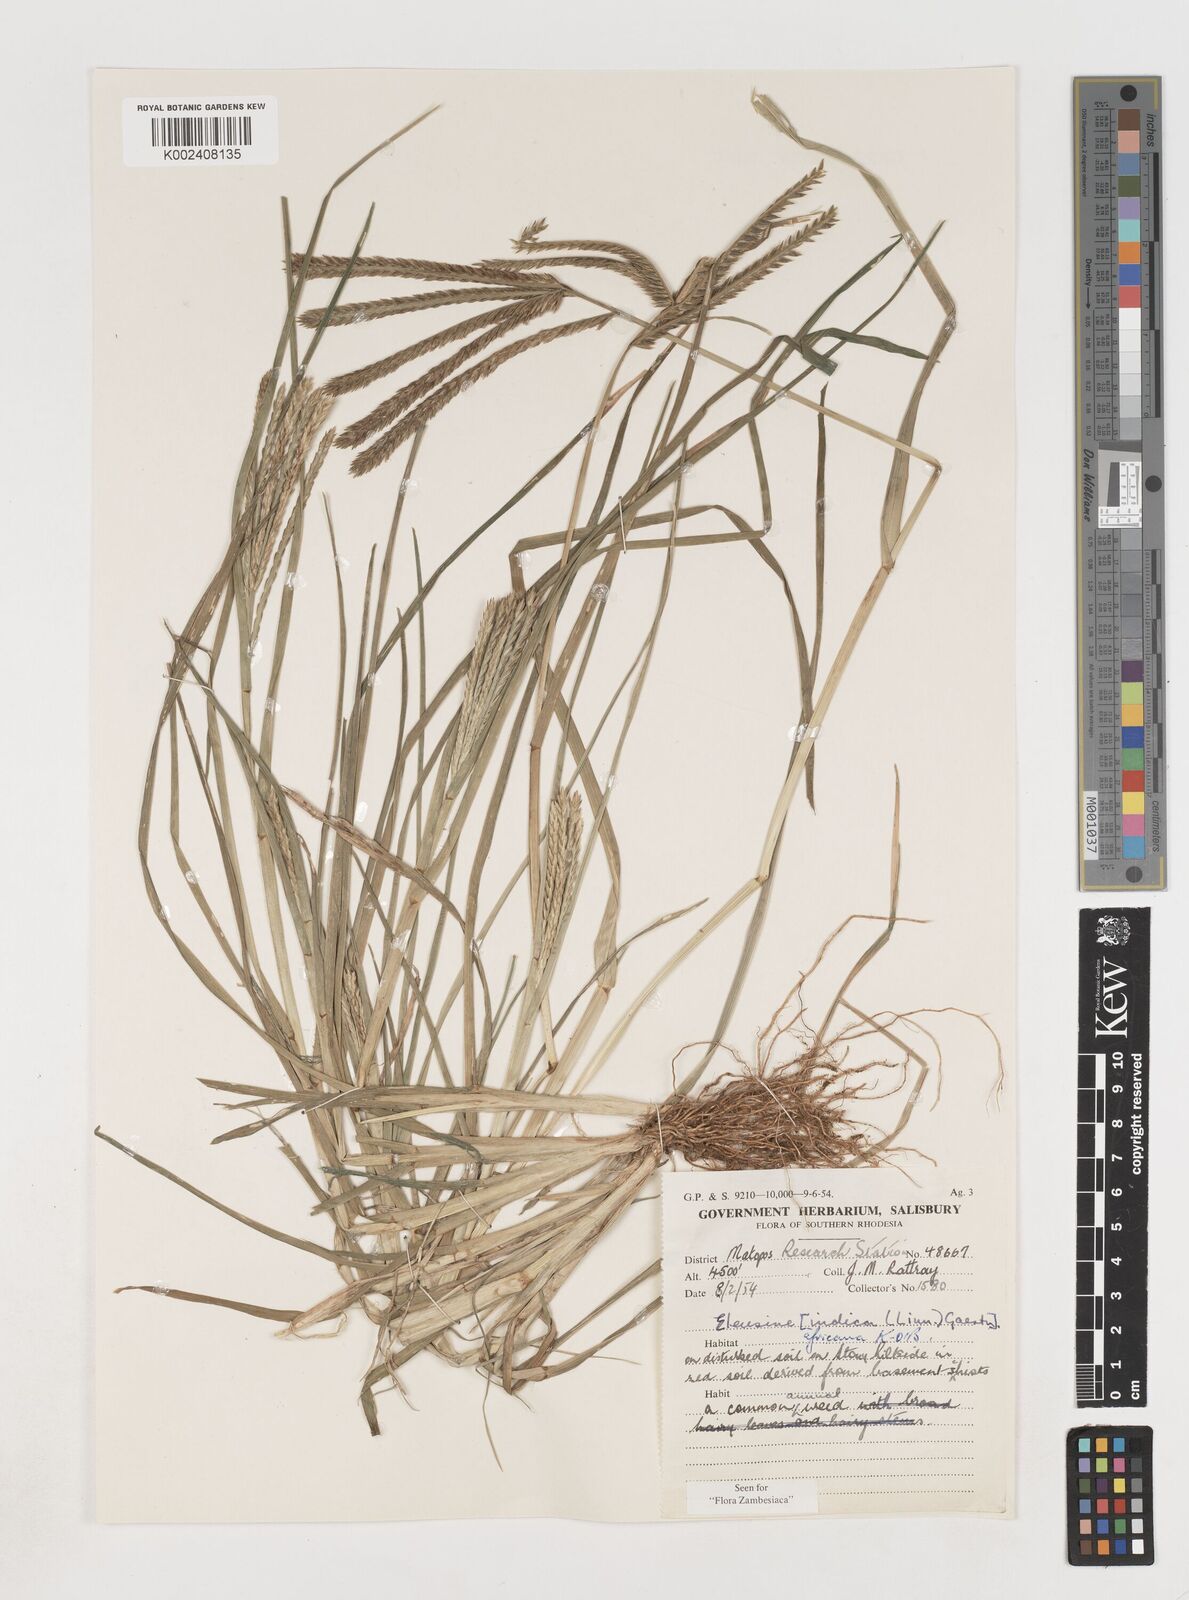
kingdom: Plantae
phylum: Tracheophyta
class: Liliopsida
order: Poales
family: Poaceae
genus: Eleusine
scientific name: Eleusine africana
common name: Wild african finger millet
